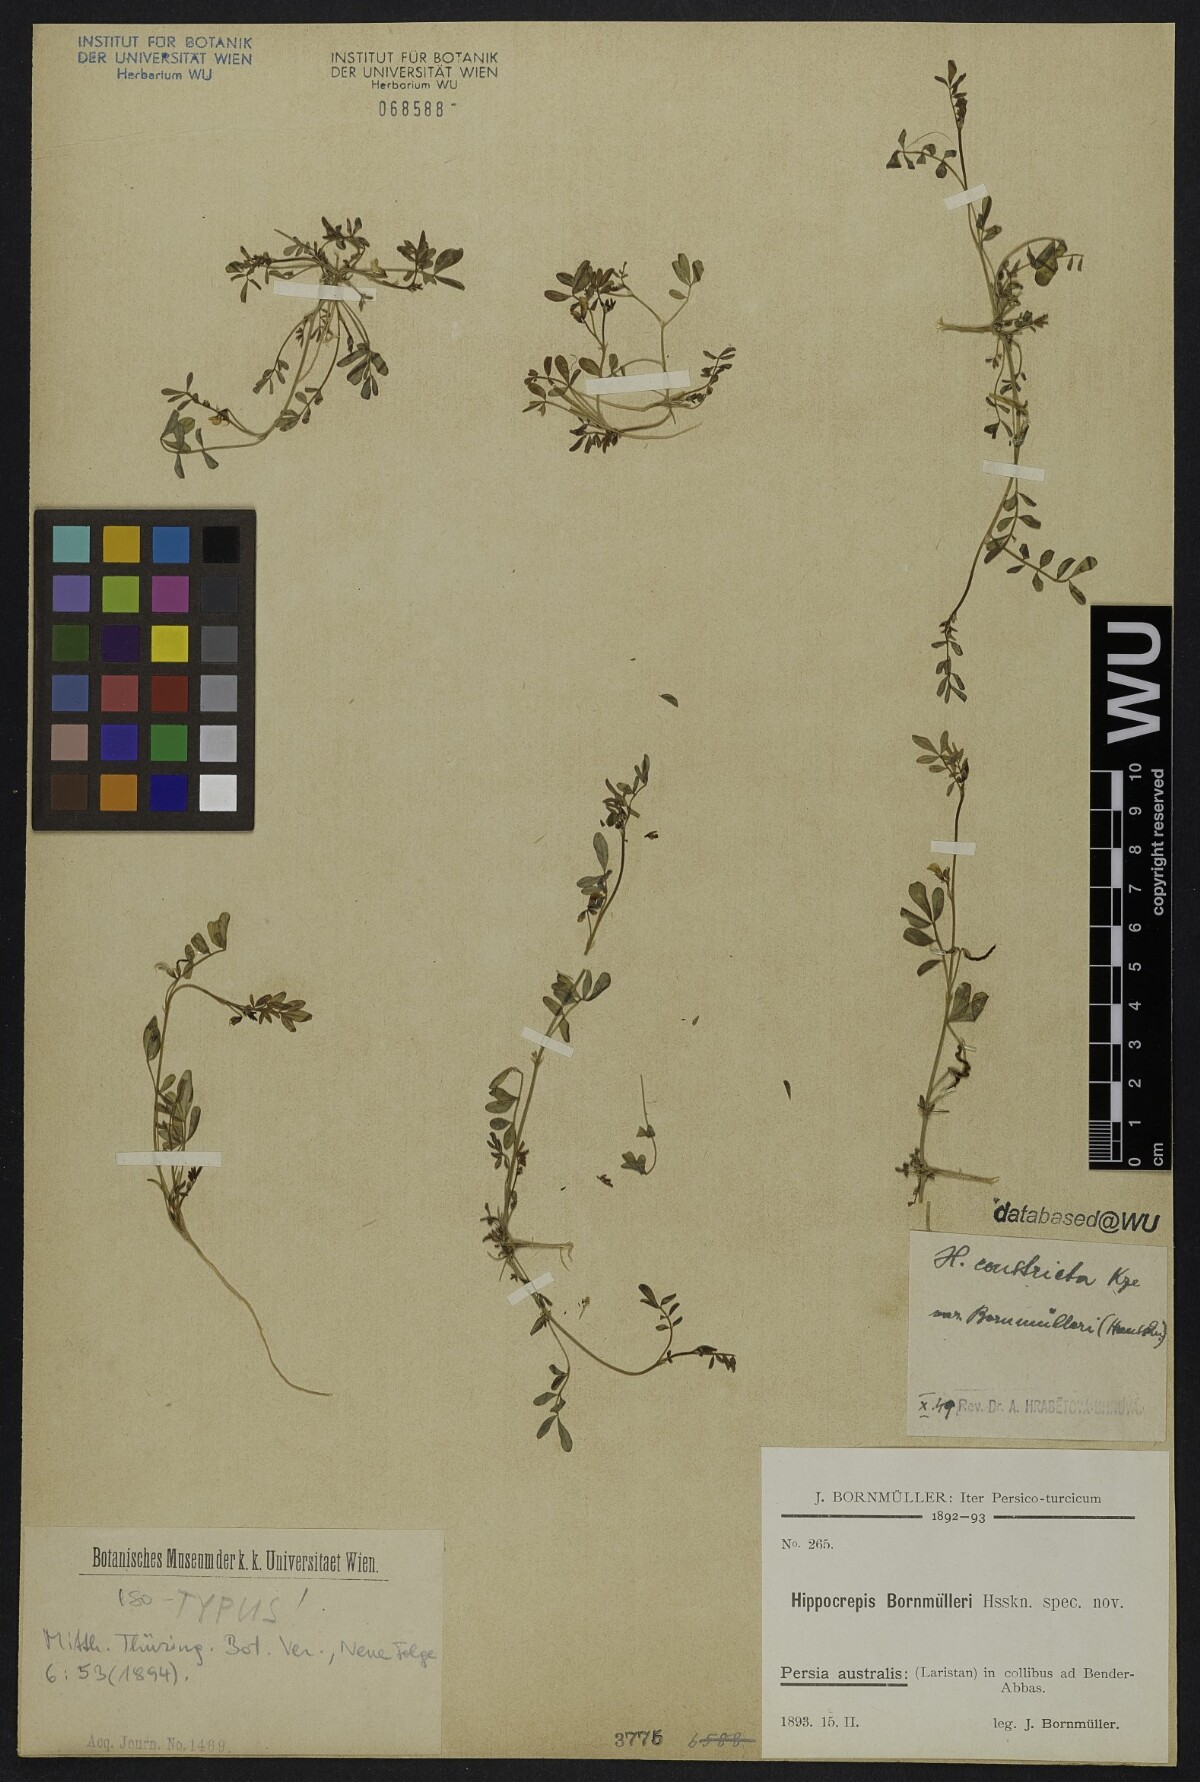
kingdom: Plantae
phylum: Tracheophyta
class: Magnoliopsida
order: Fabales
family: Fabaceae
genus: Hippocrepis
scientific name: Hippocrepis constricta
